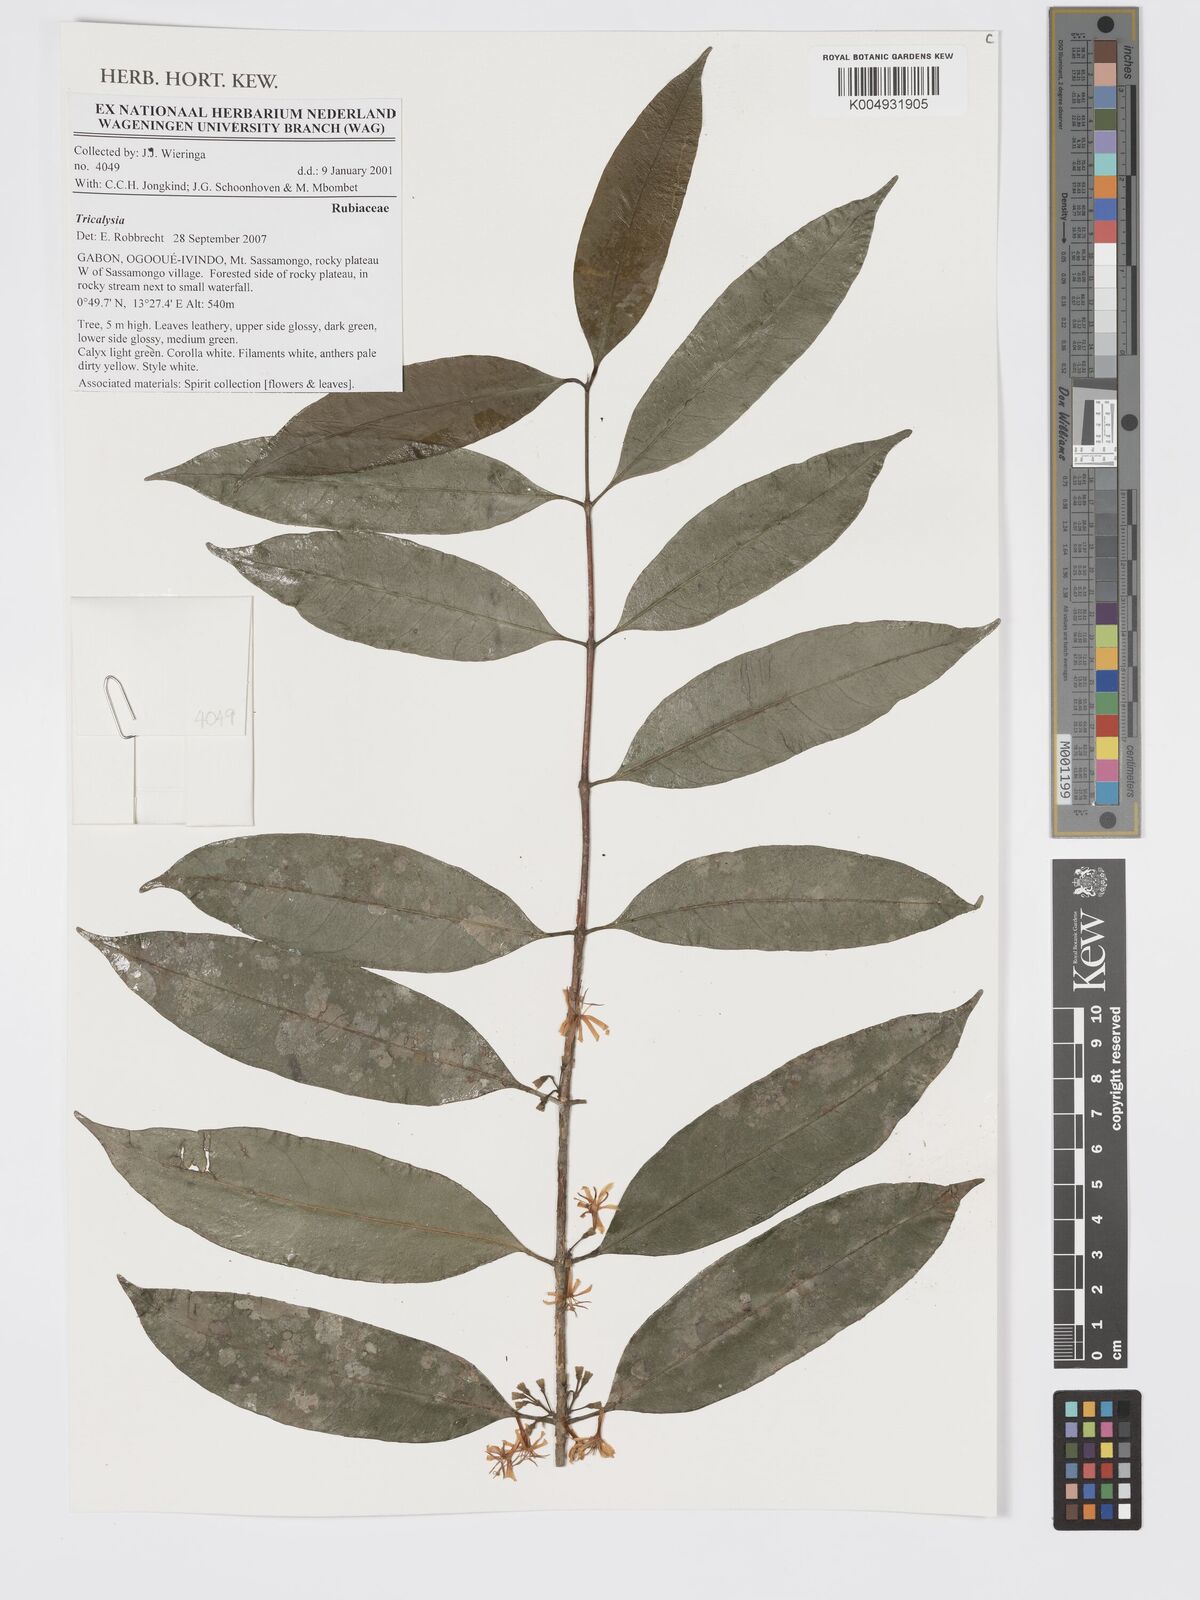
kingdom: Plantae
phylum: Tracheophyta
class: Magnoliopsida
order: Gentianales
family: Rubiaceae
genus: Tricalysia
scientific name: Tricalysia
